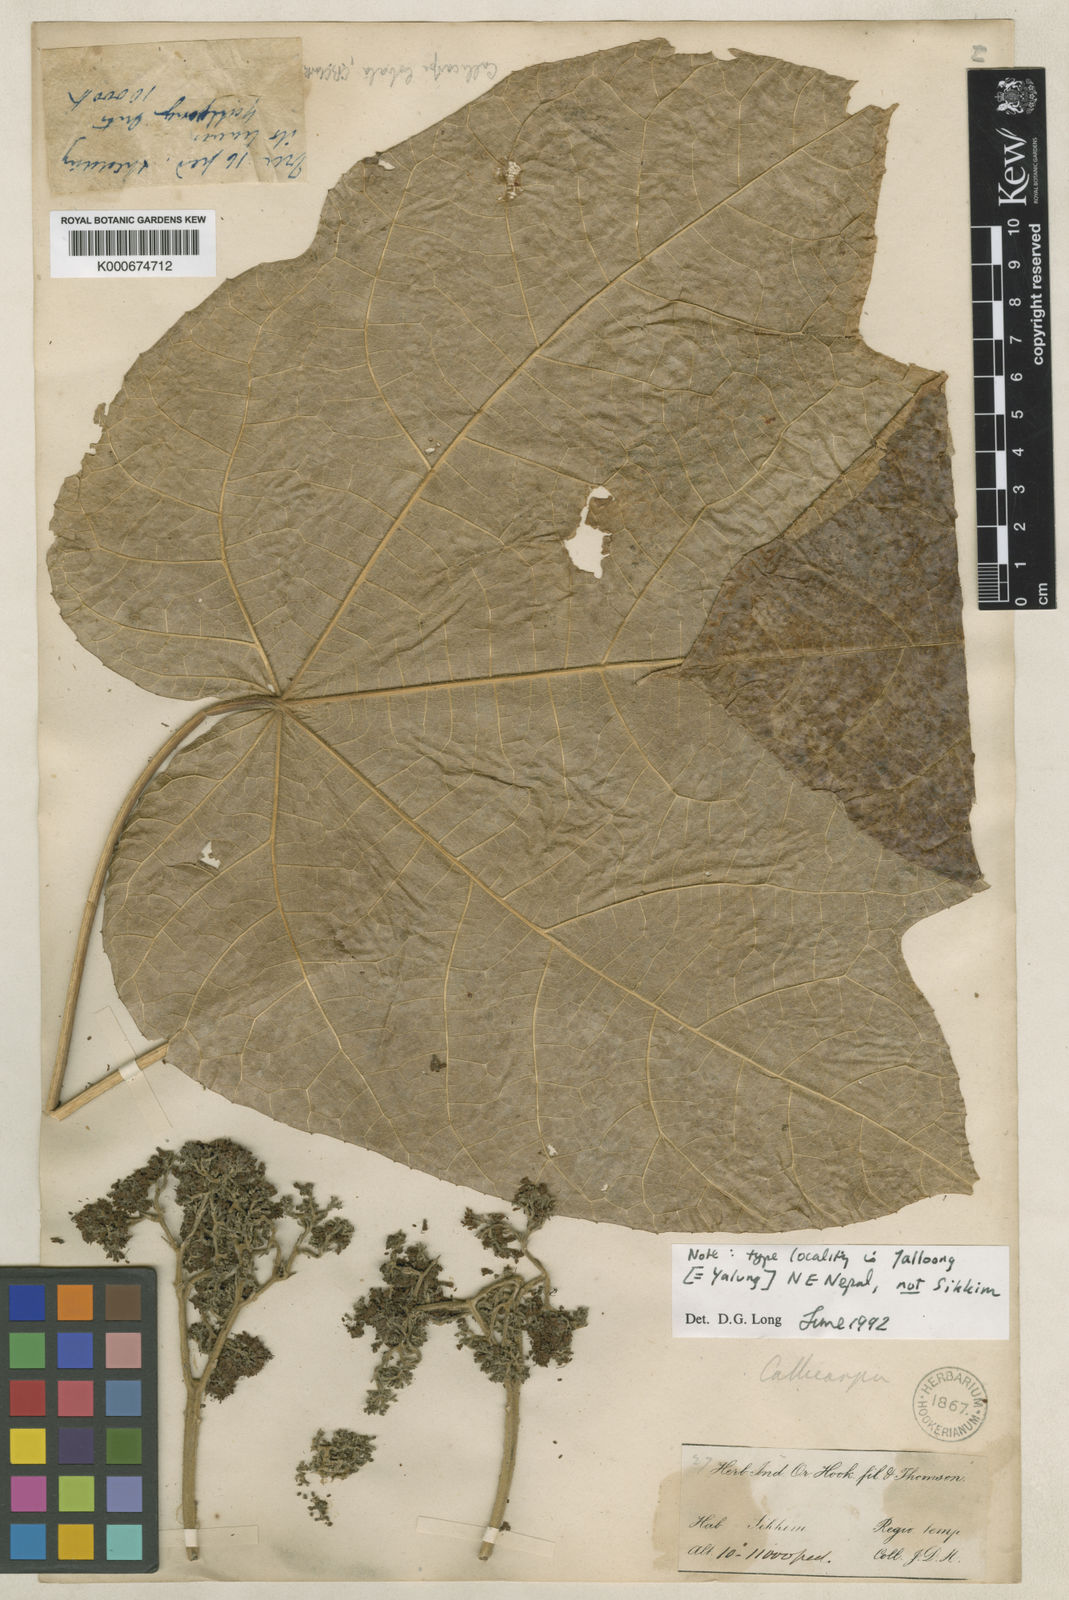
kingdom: Plantae
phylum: Tracheophyta
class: Magnoliopsida
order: Lamiales
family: Lamiaceae
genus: Callicarpa
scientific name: Callicarpa tomentosa
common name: Great woolly malayan-lilac
